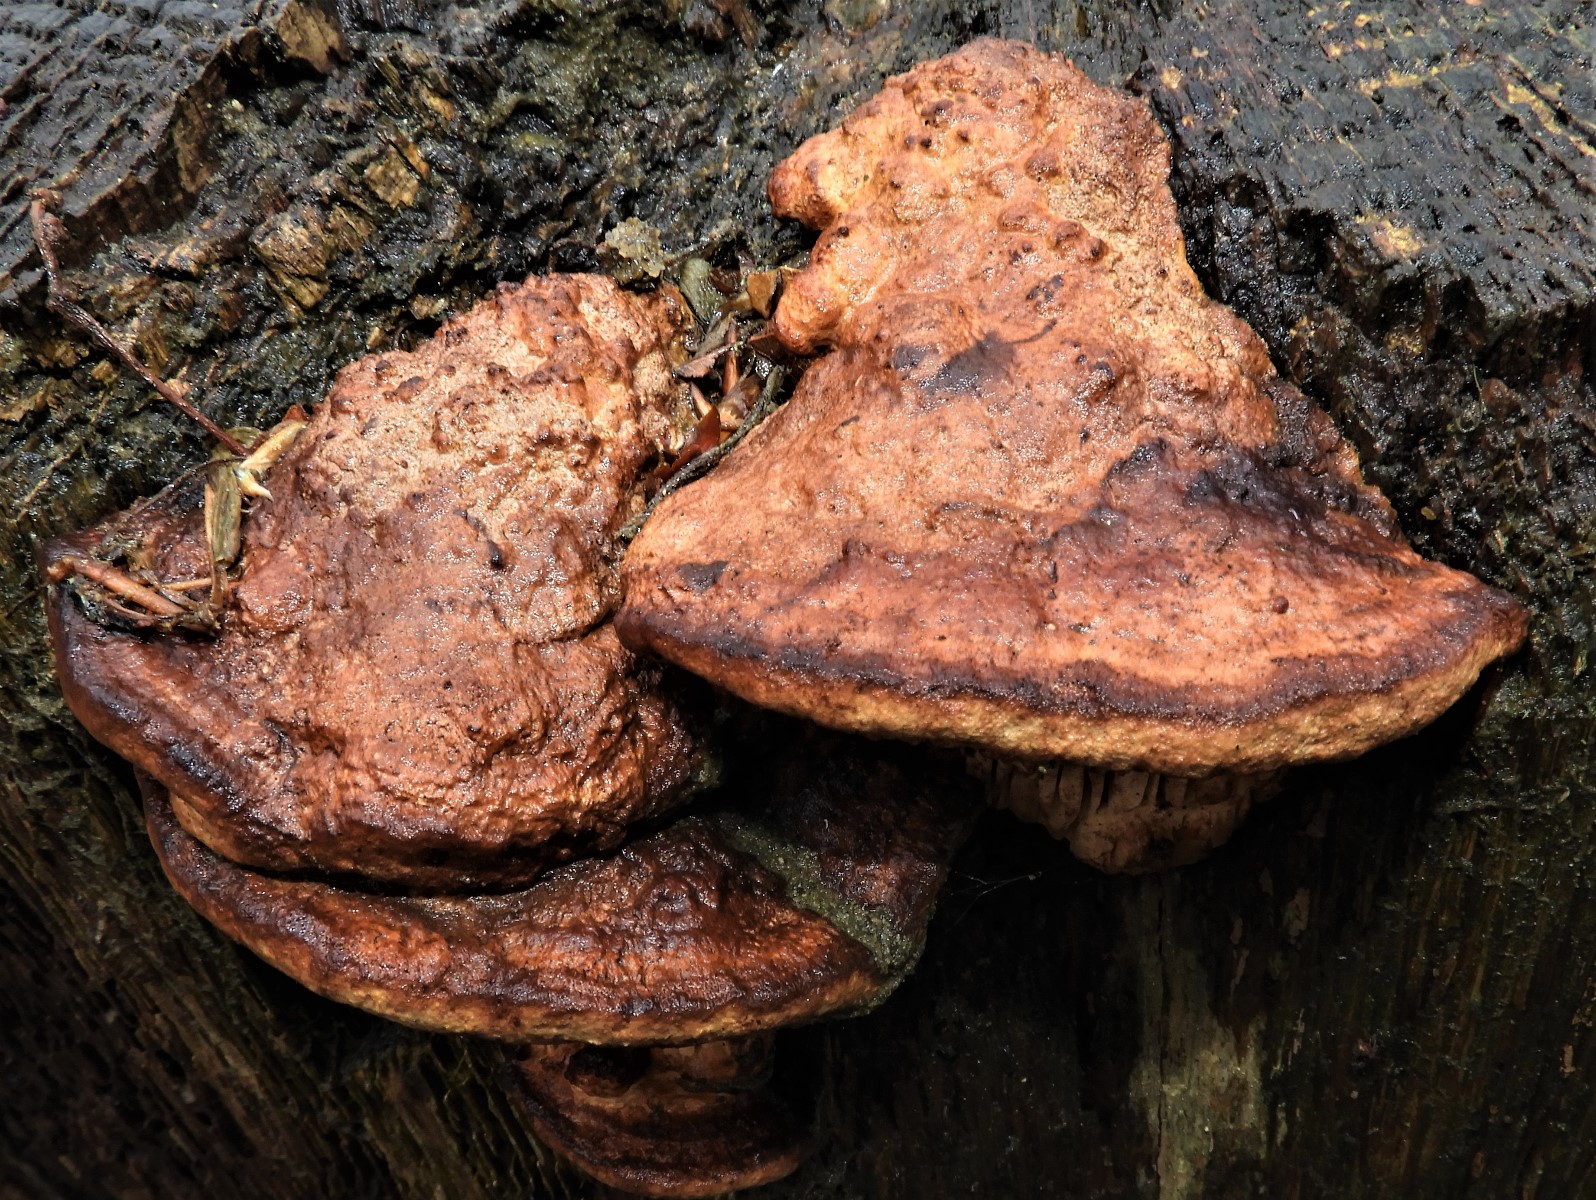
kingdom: Fungi
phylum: Basidiomycota
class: Agaricomycetes
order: Polyporales
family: Fomitopsidaceae
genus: Daedalea
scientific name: Daedalea quercina
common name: ege-labyrintsvamp
